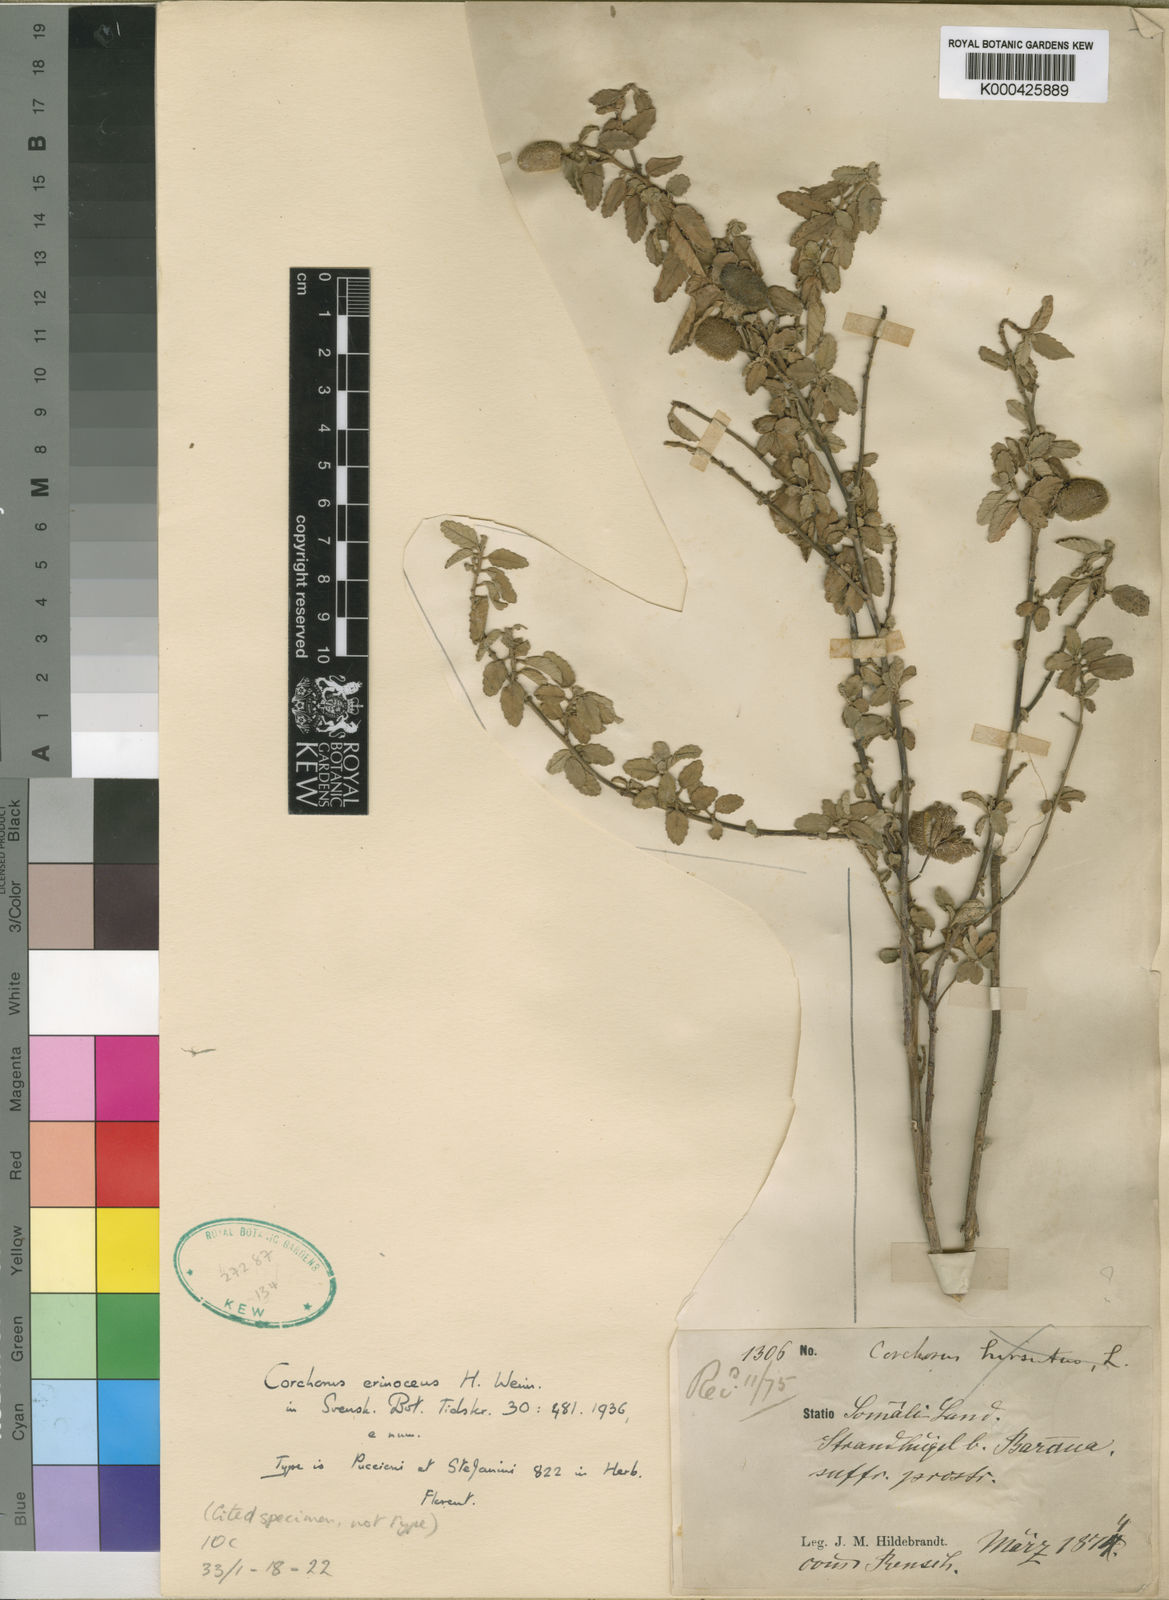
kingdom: Plantae
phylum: Tracheophyta
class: Magnoliopsida
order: Malvales
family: Malvaceae
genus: Corchorus
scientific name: Corchorus
